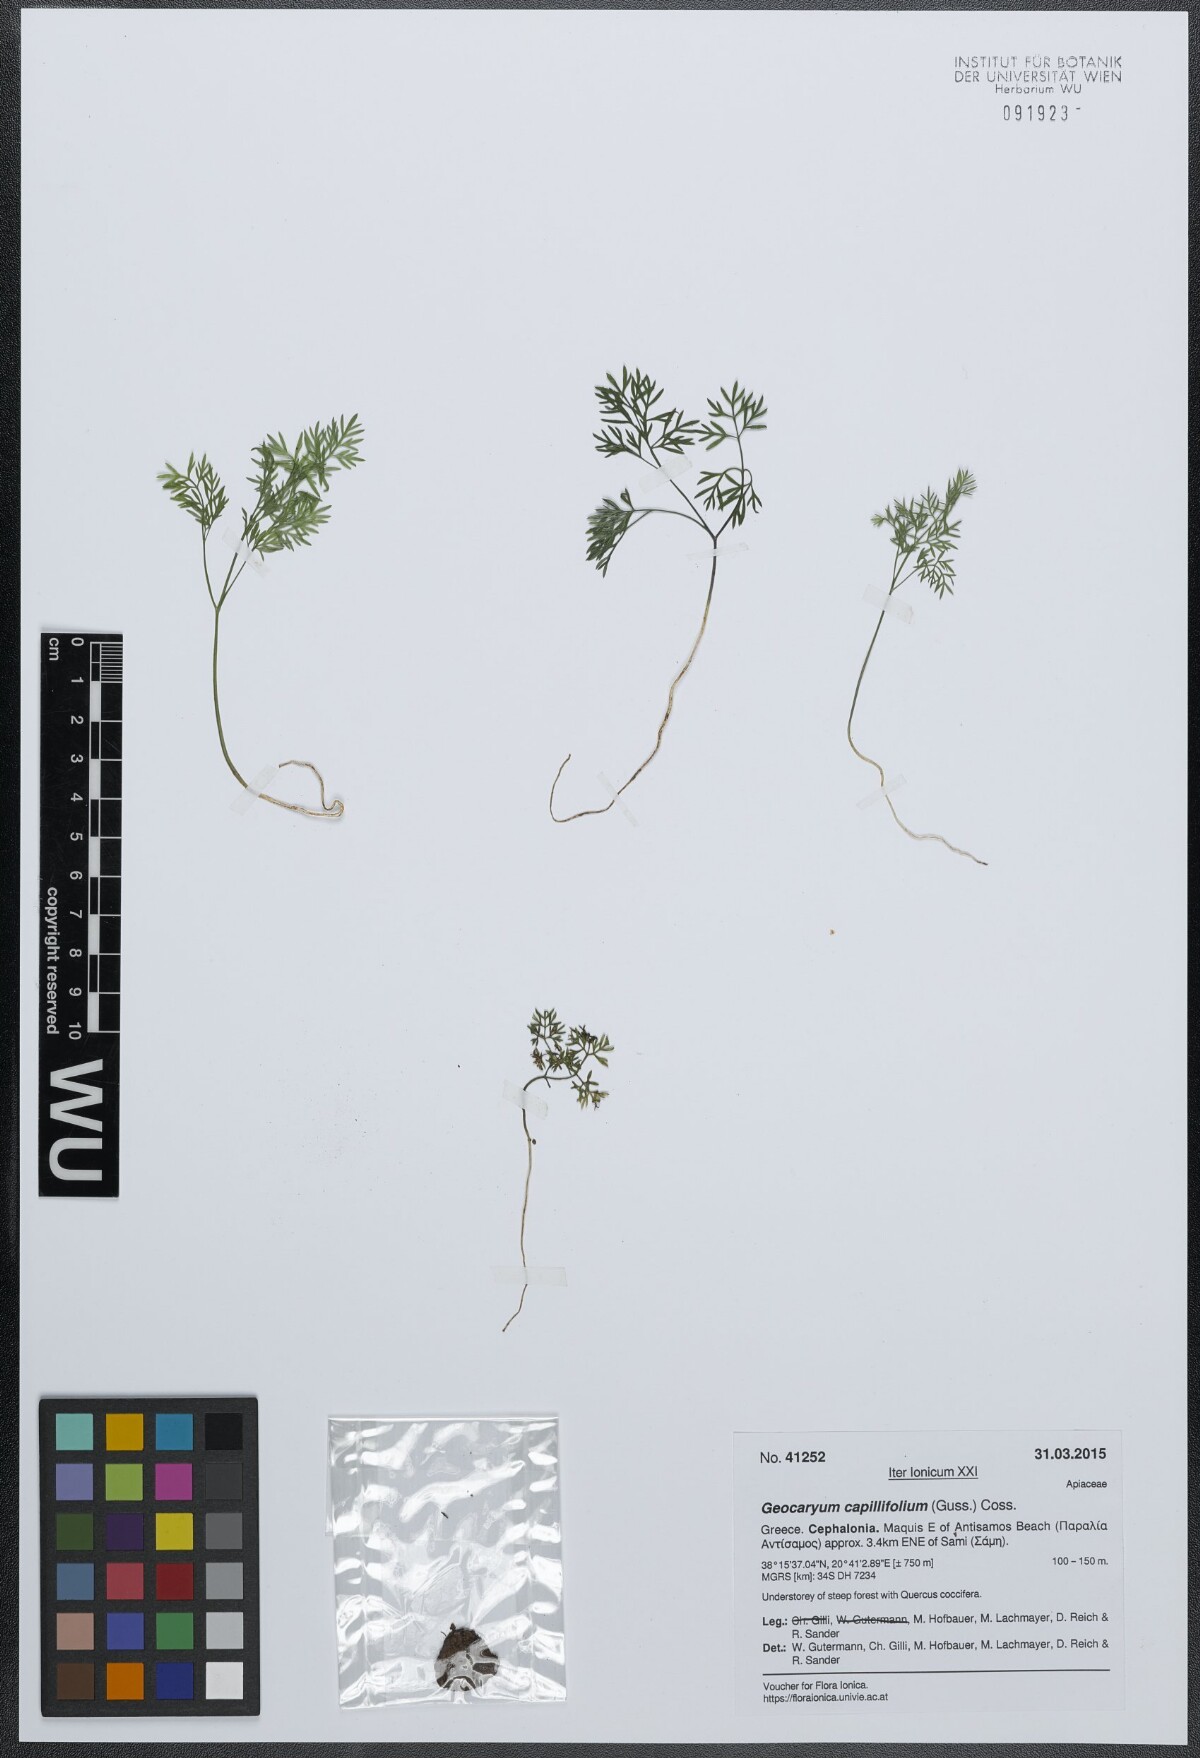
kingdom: Plantae
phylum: Tracheophyta
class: Magnoliopsida
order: Apiales
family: Apiaceae
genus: Geocaryum
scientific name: Geocaryum capillifolium
